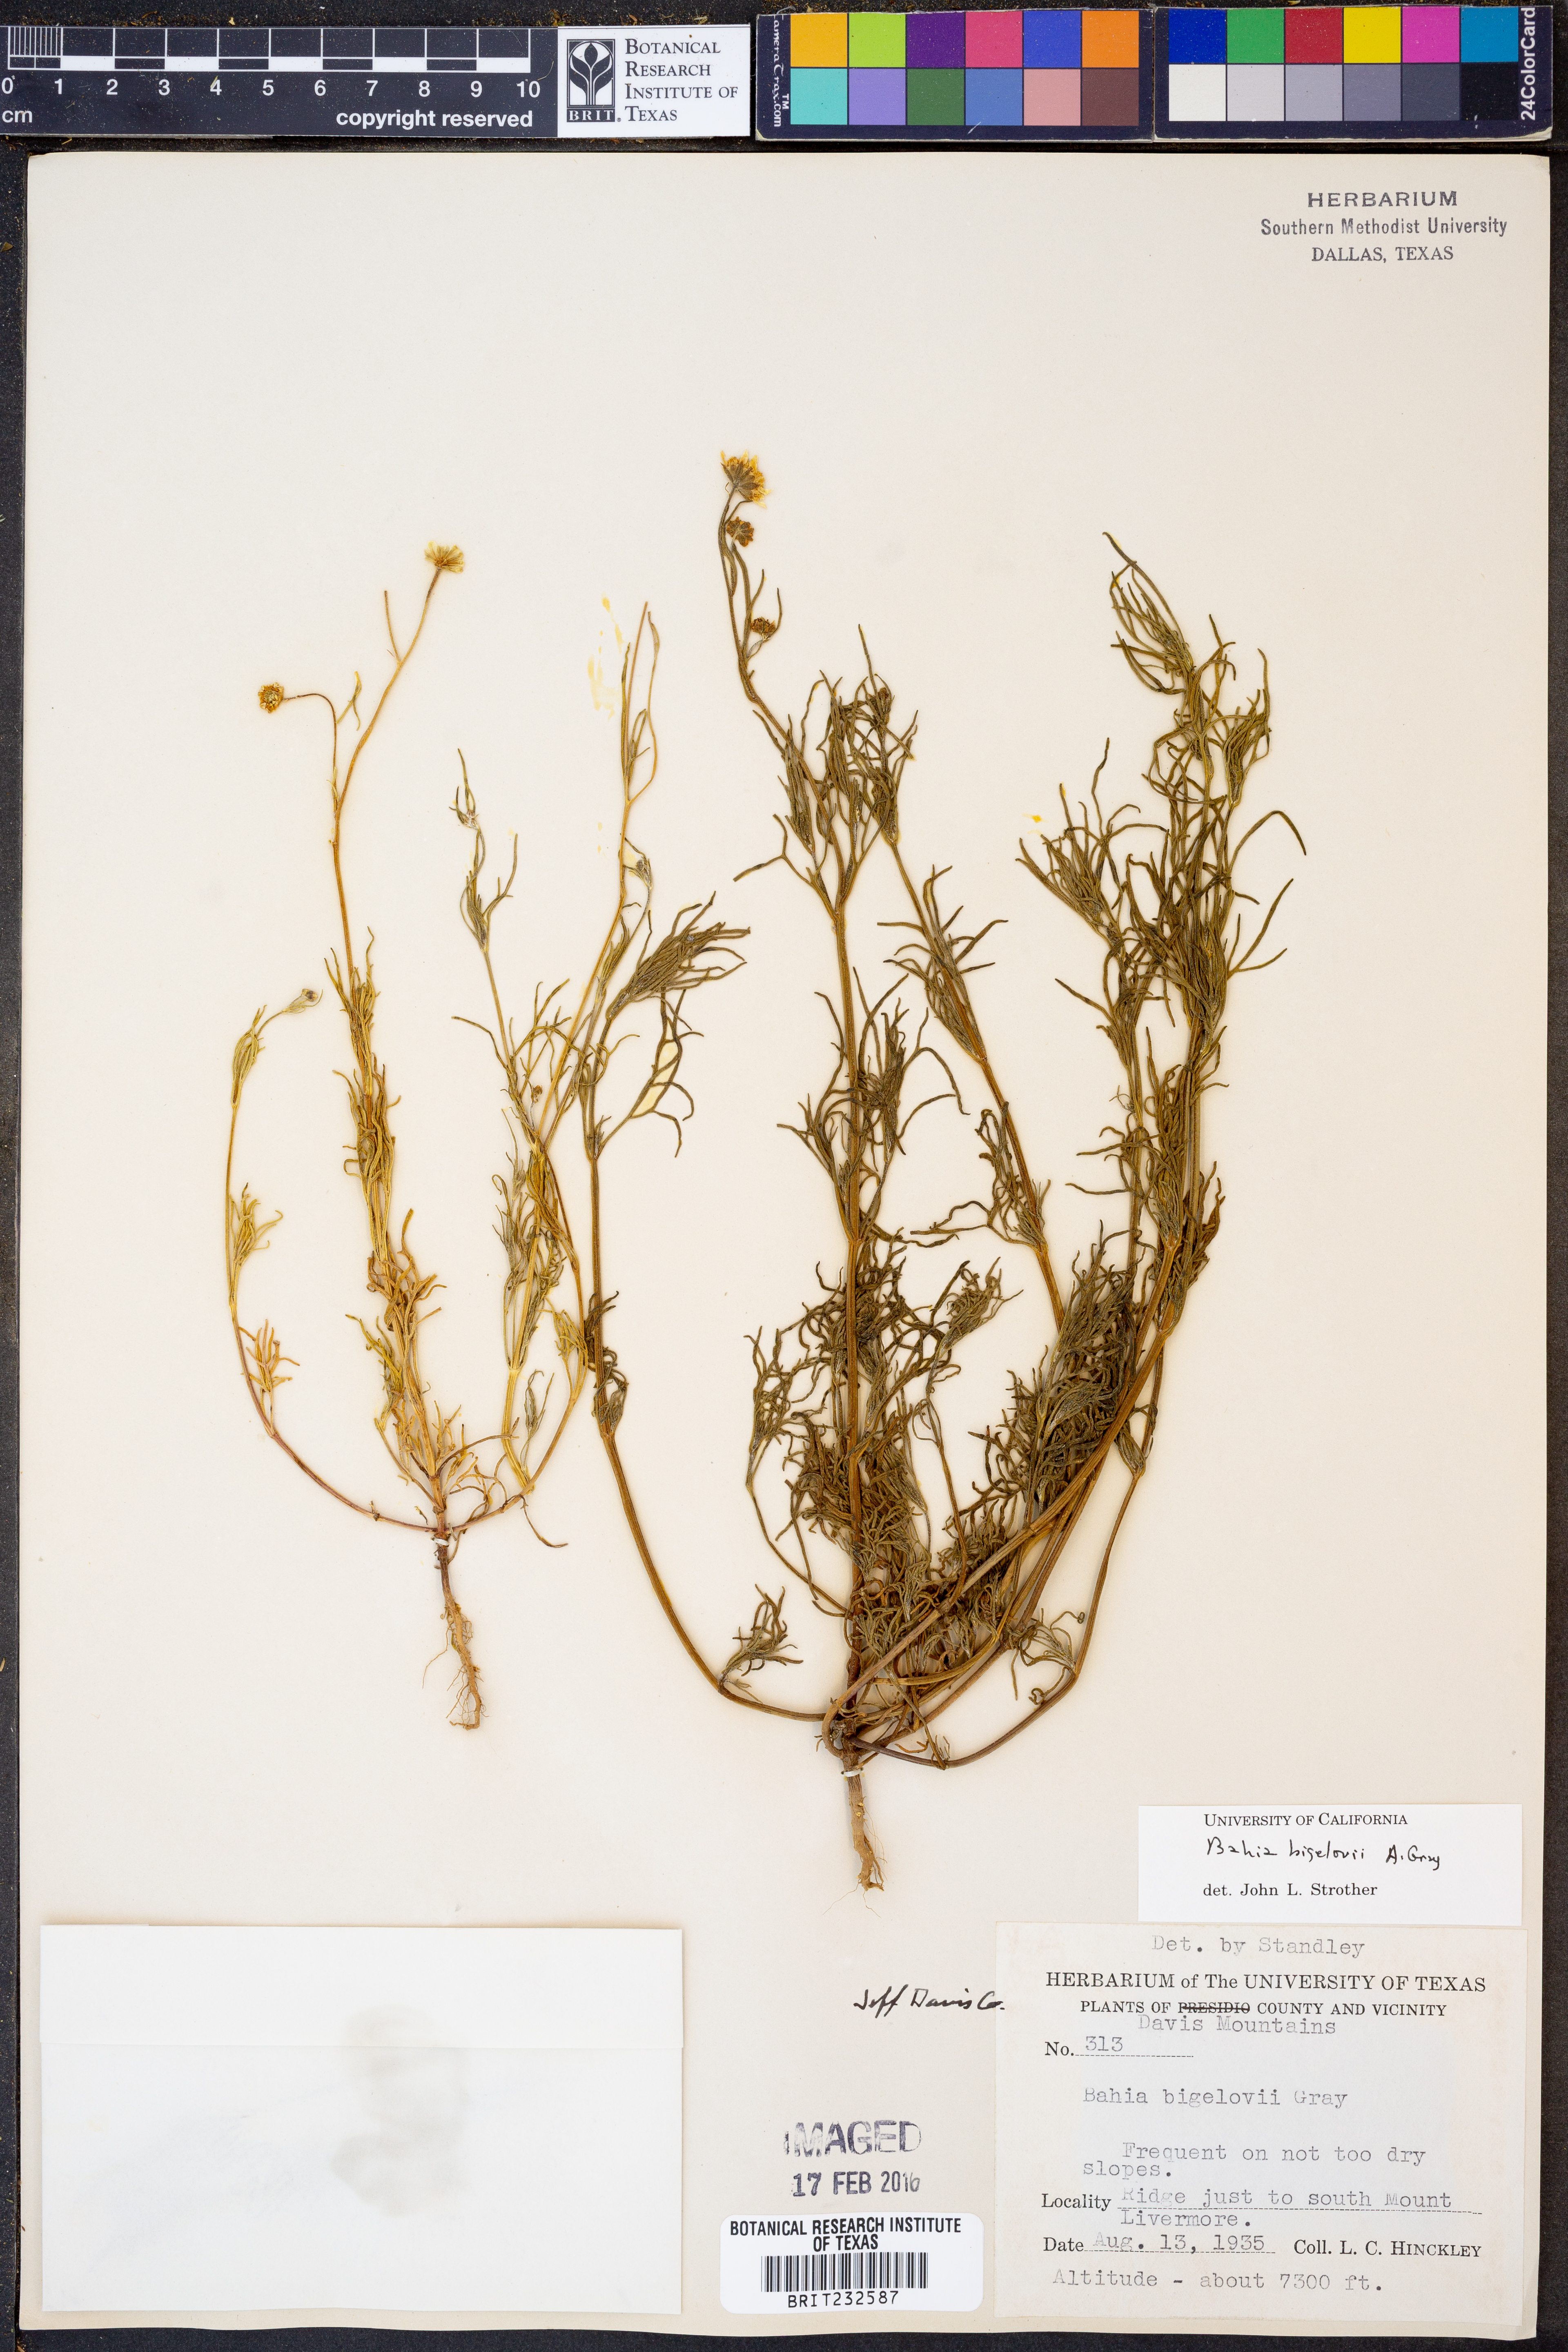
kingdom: Plantae
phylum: Tracheophyta
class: Magnoliopsida
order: Asterales
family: Asteraceae
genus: Picradeniopsis
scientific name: Picradeniopsis bigelovii
